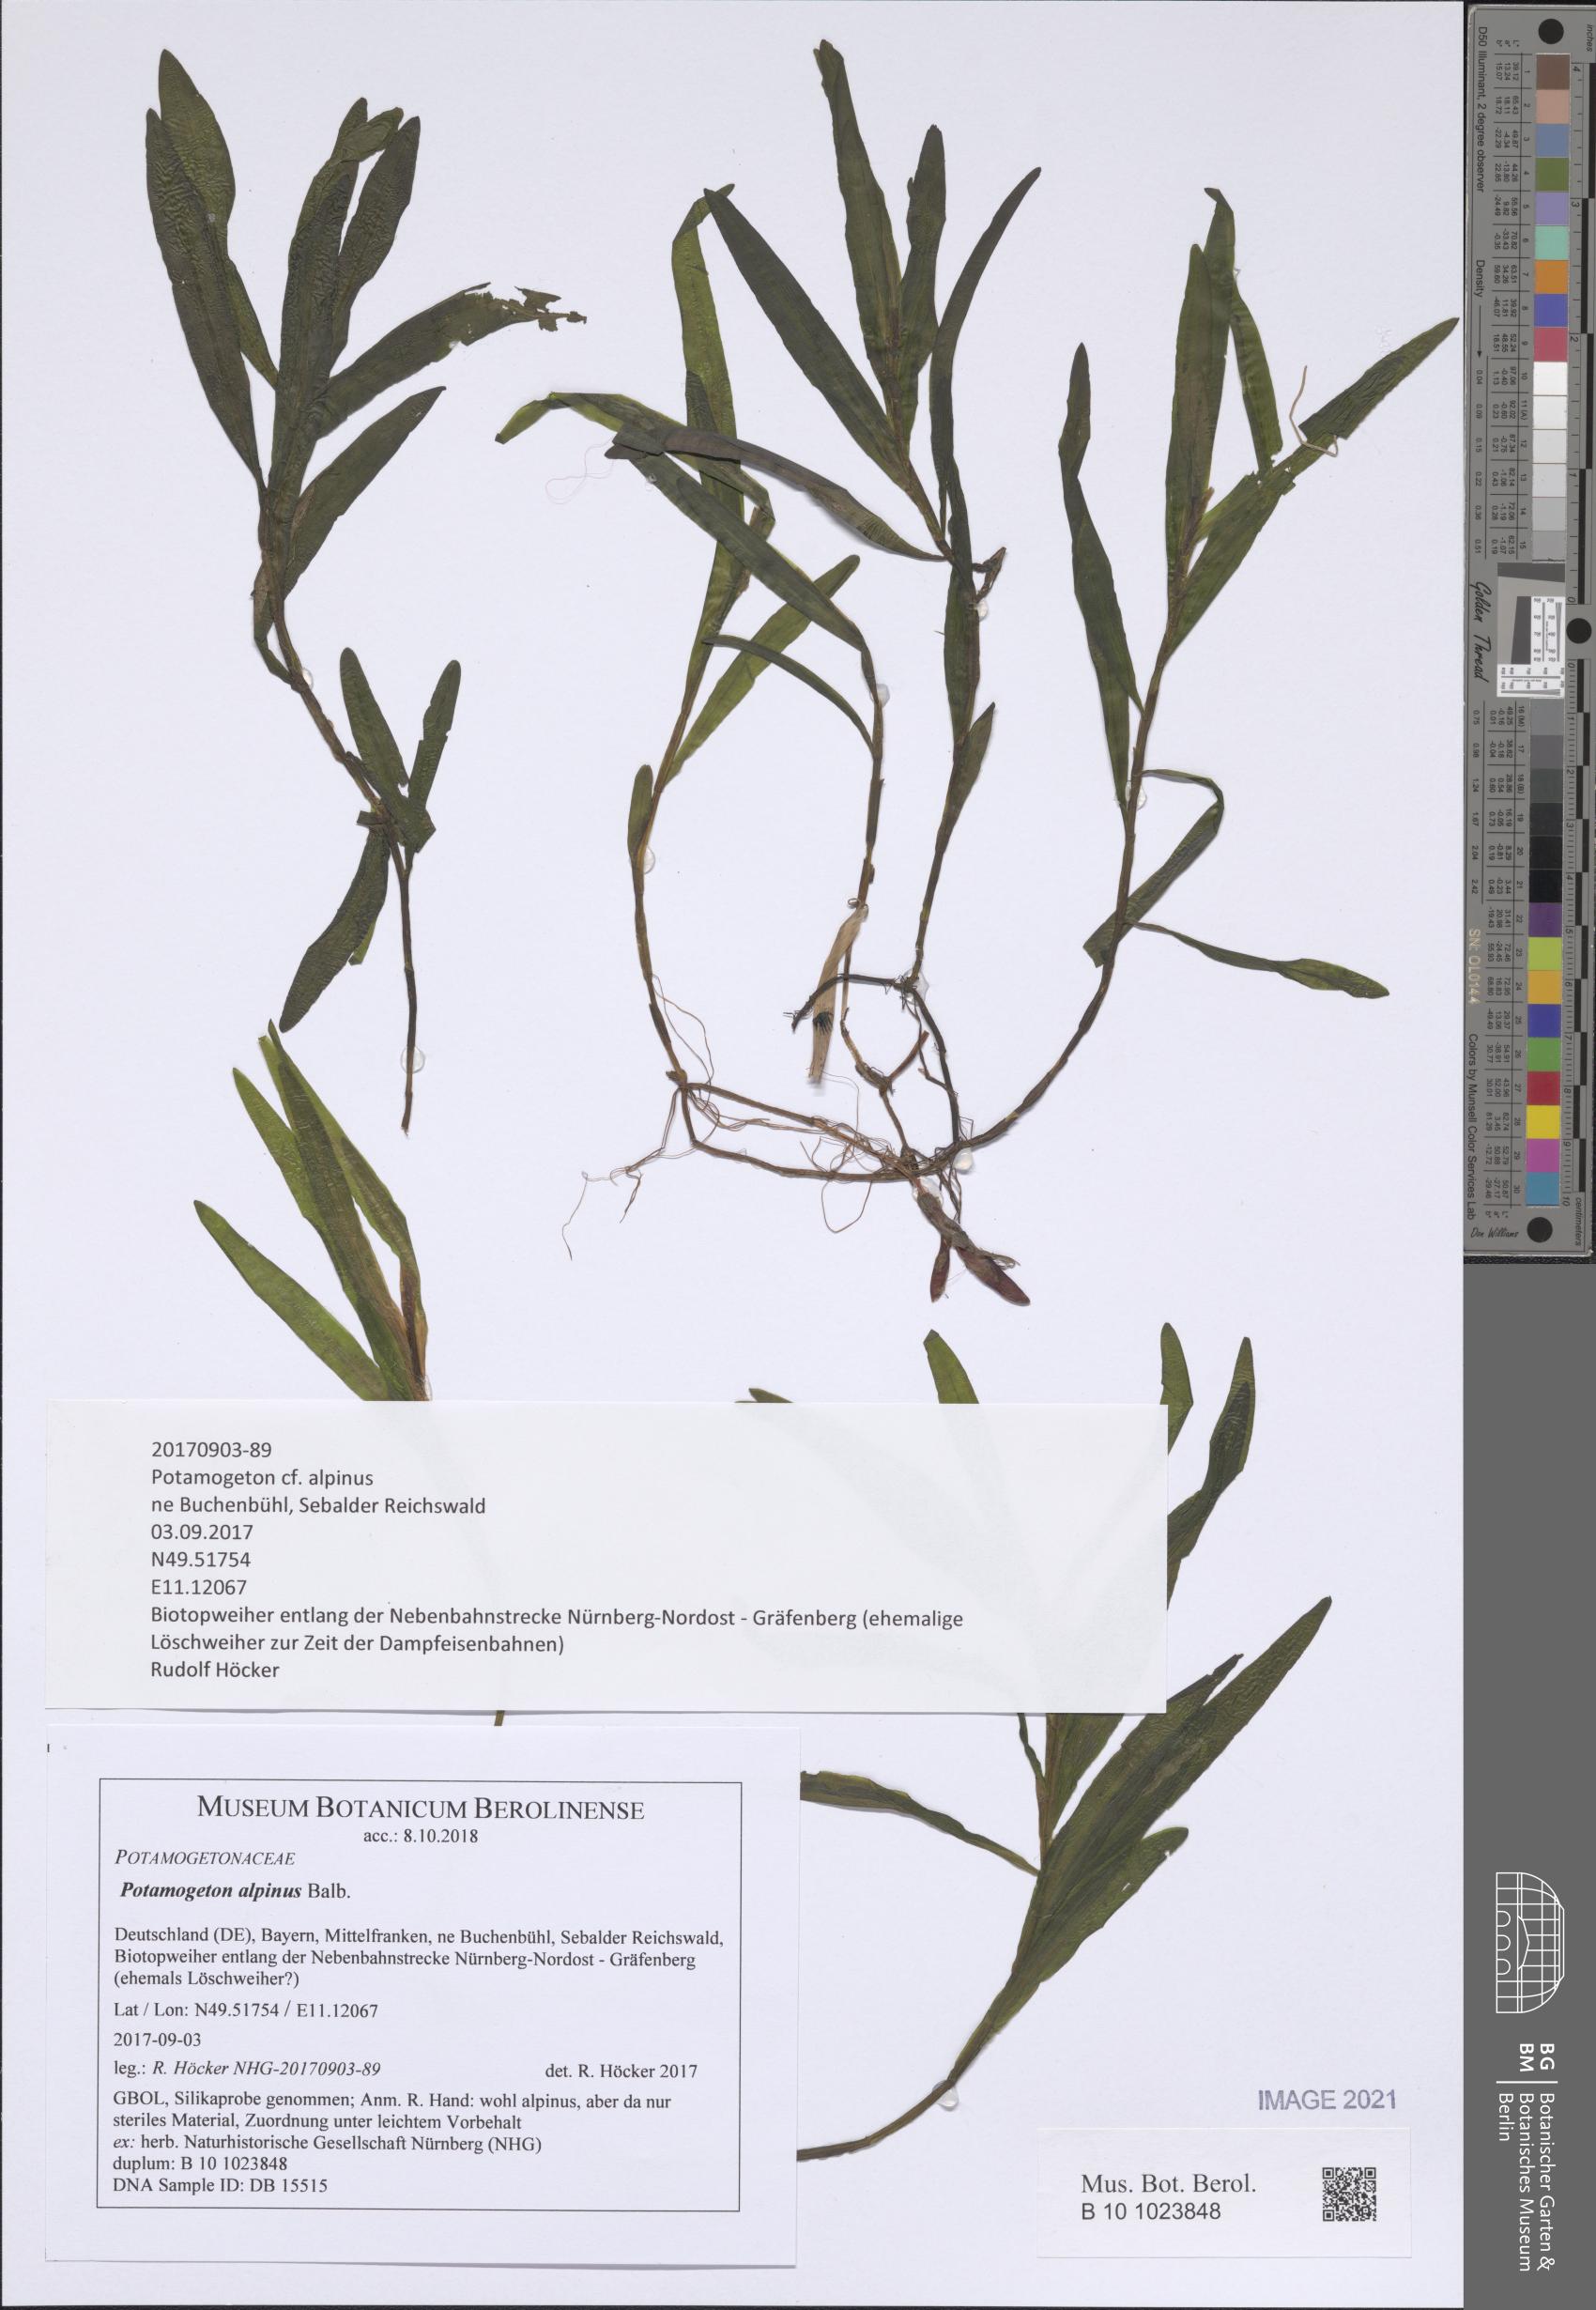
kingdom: Plantae
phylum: Tracheophyta
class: Liliopsida
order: Alismatales
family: Potamogetonaceae
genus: Potamogeton
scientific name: Potamogeton alpinus
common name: Red pondweed
